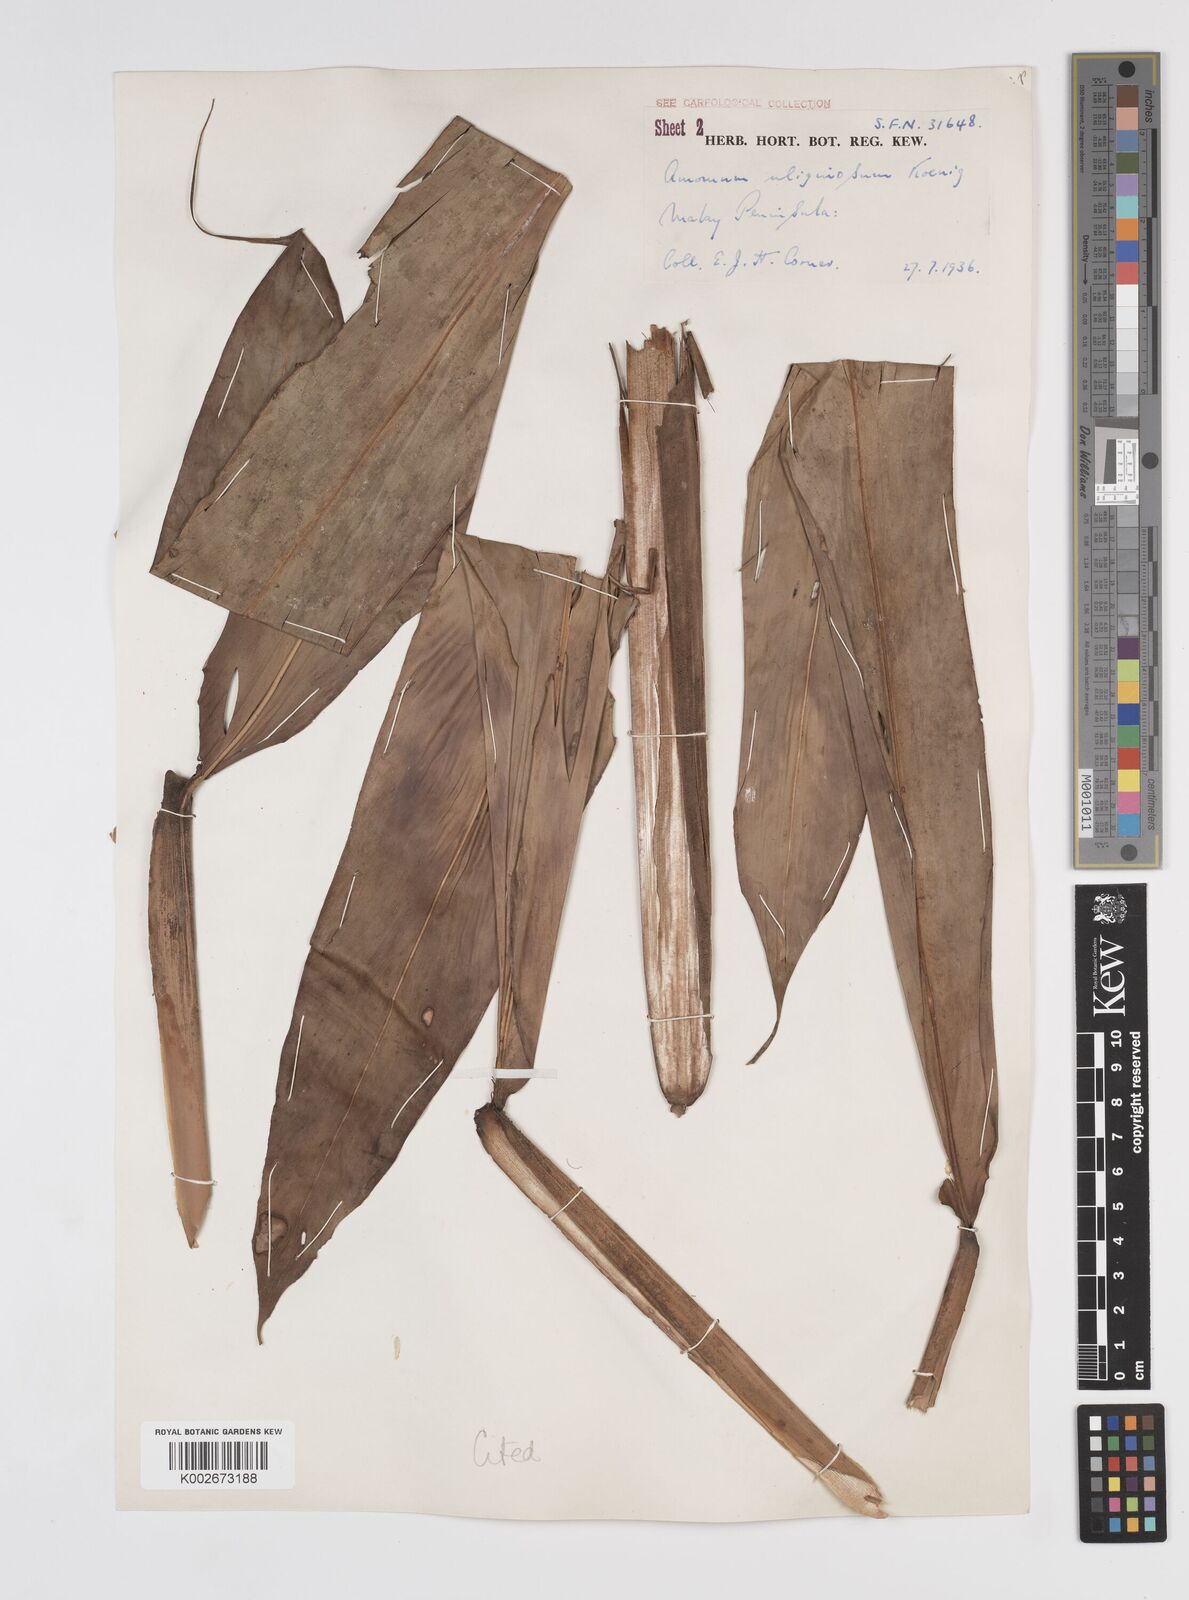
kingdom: Plantae
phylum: Tracheophyta
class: Liliopsida
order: Zingiberales
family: Zingiberaceae
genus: Wurfbainia
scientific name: Wurfbainia uliginosa
